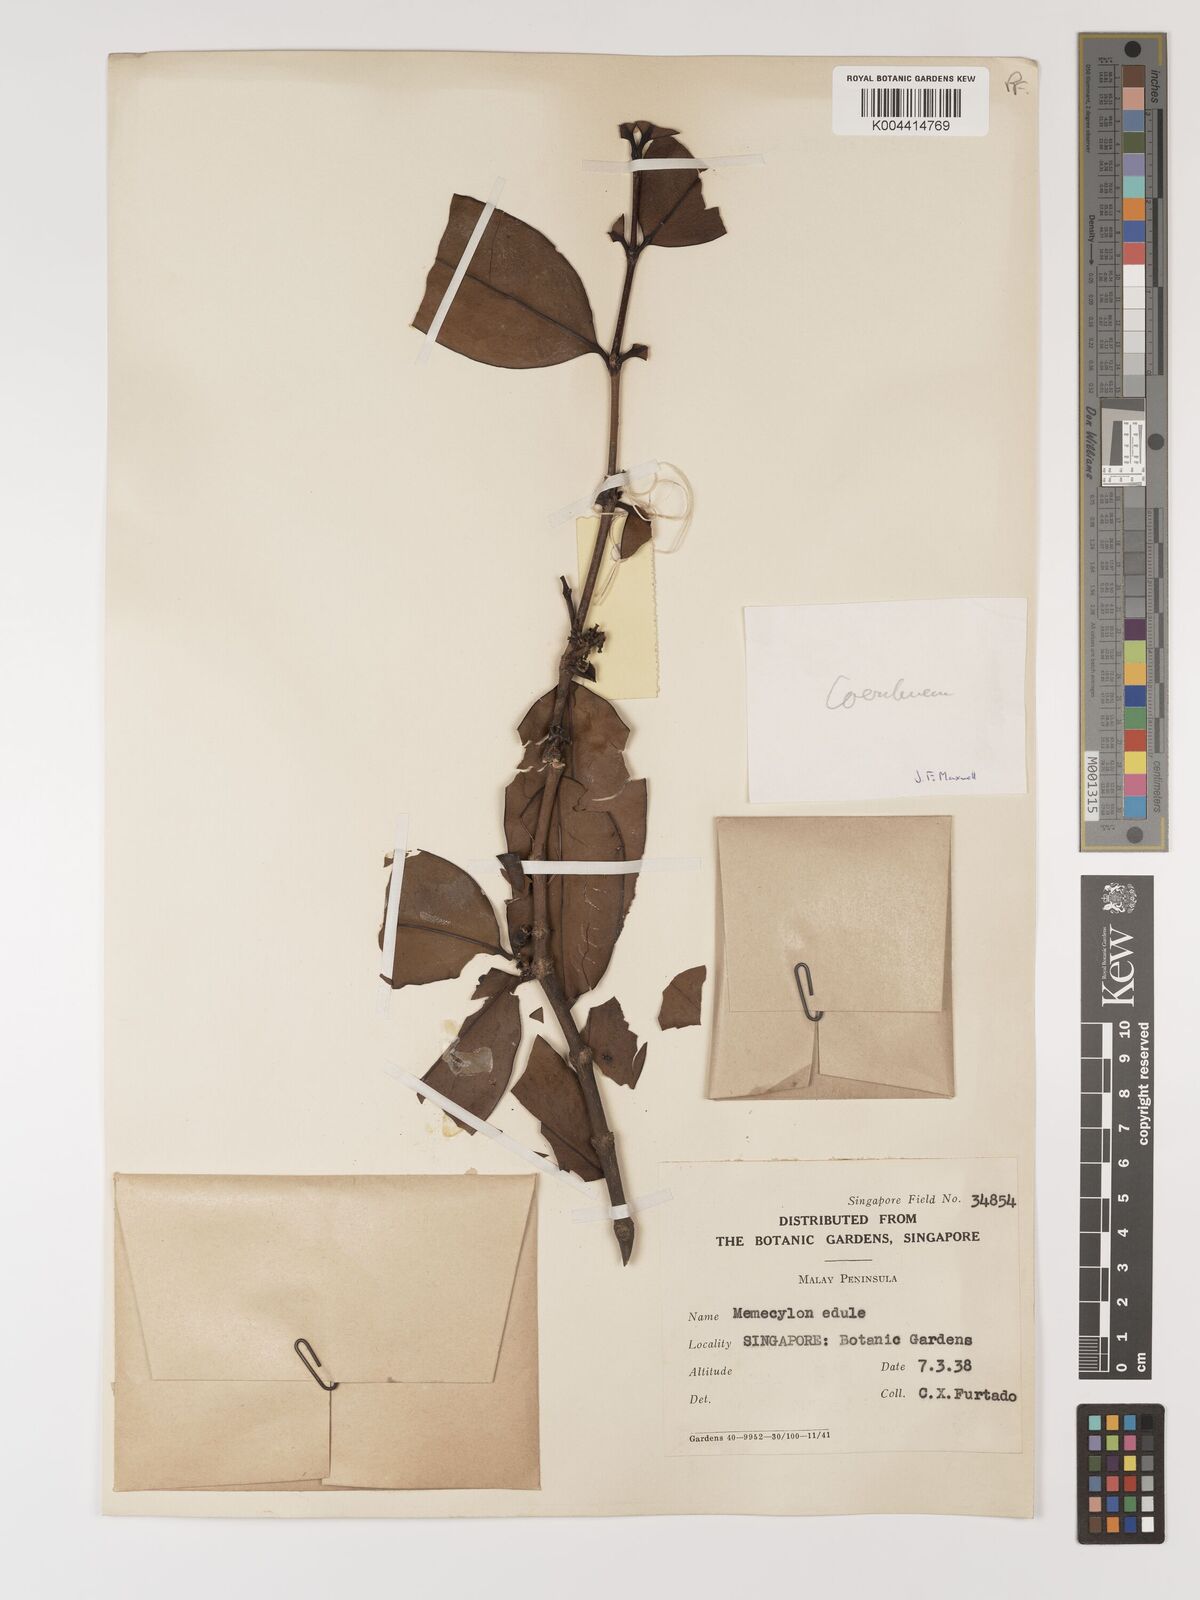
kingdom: Plantae
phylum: Tracheophyta
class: Magnoliopsida
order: Myrtales
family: Melastomataceae
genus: Memecylon
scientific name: Memecylon
